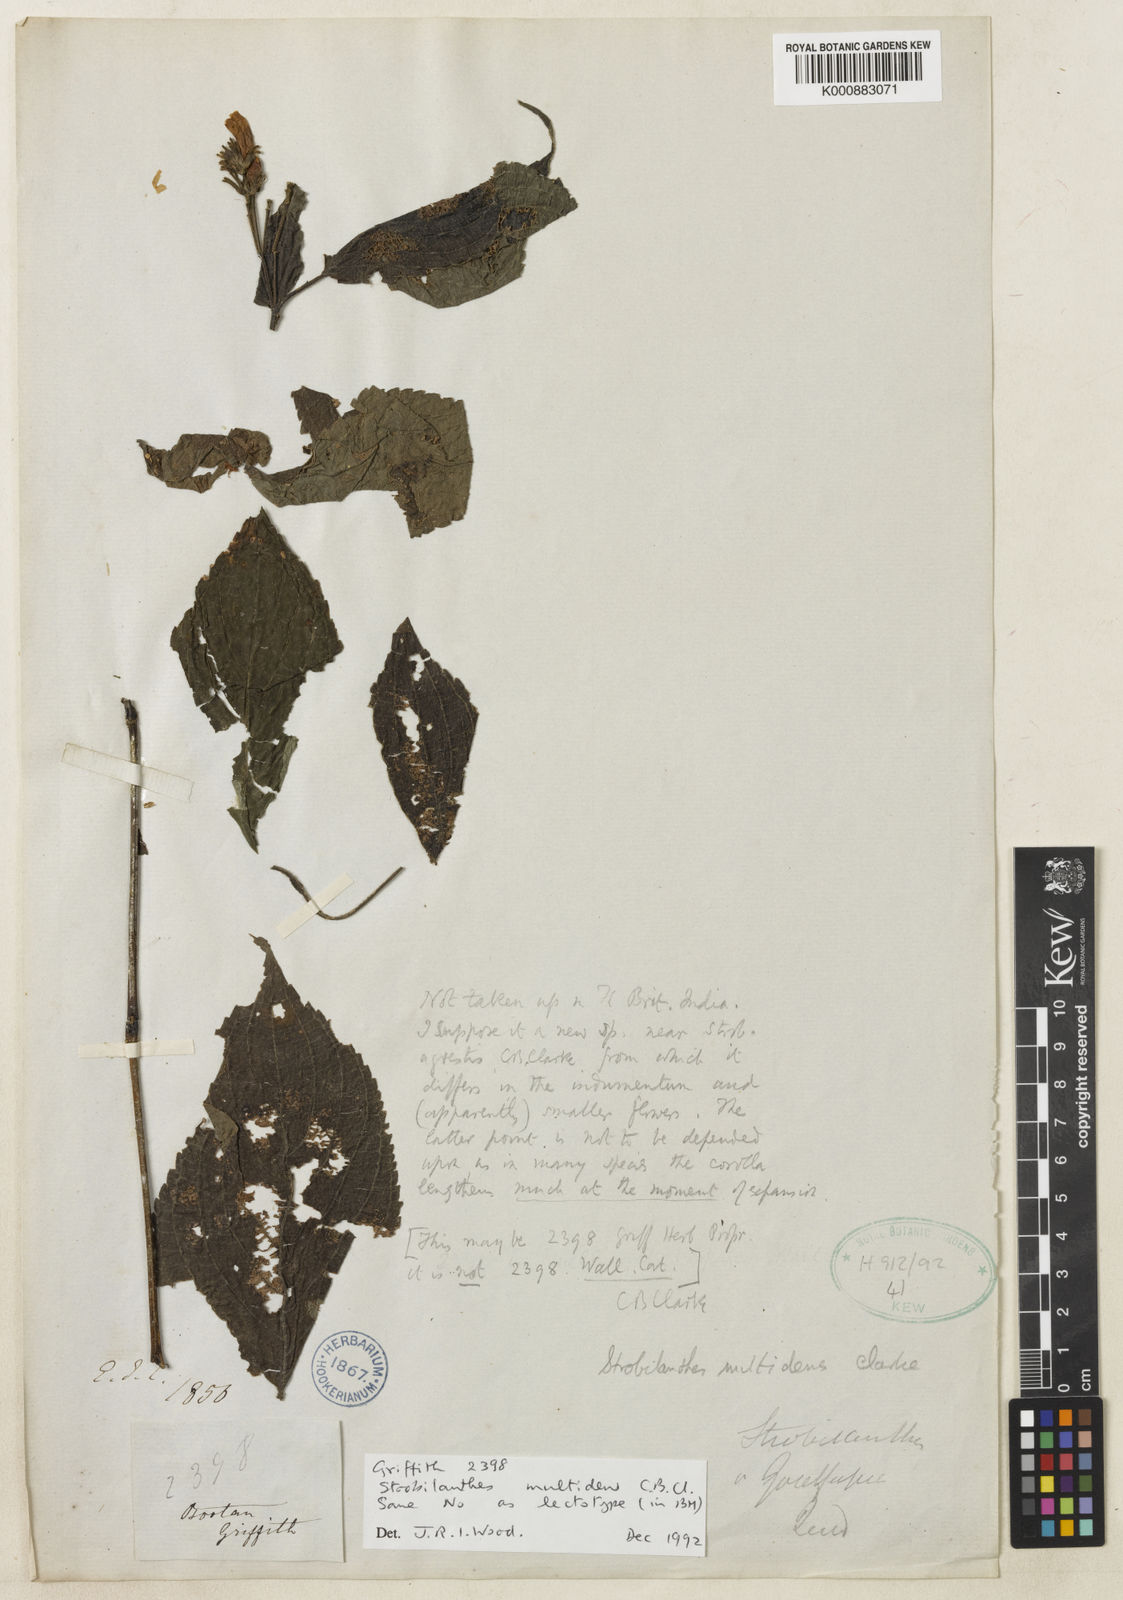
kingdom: Plantae
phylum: Tracheophyta
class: Magnoliopsida
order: Lamiales
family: Acanthaceae
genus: Strobilanthes
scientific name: Strobilanthes multidens
